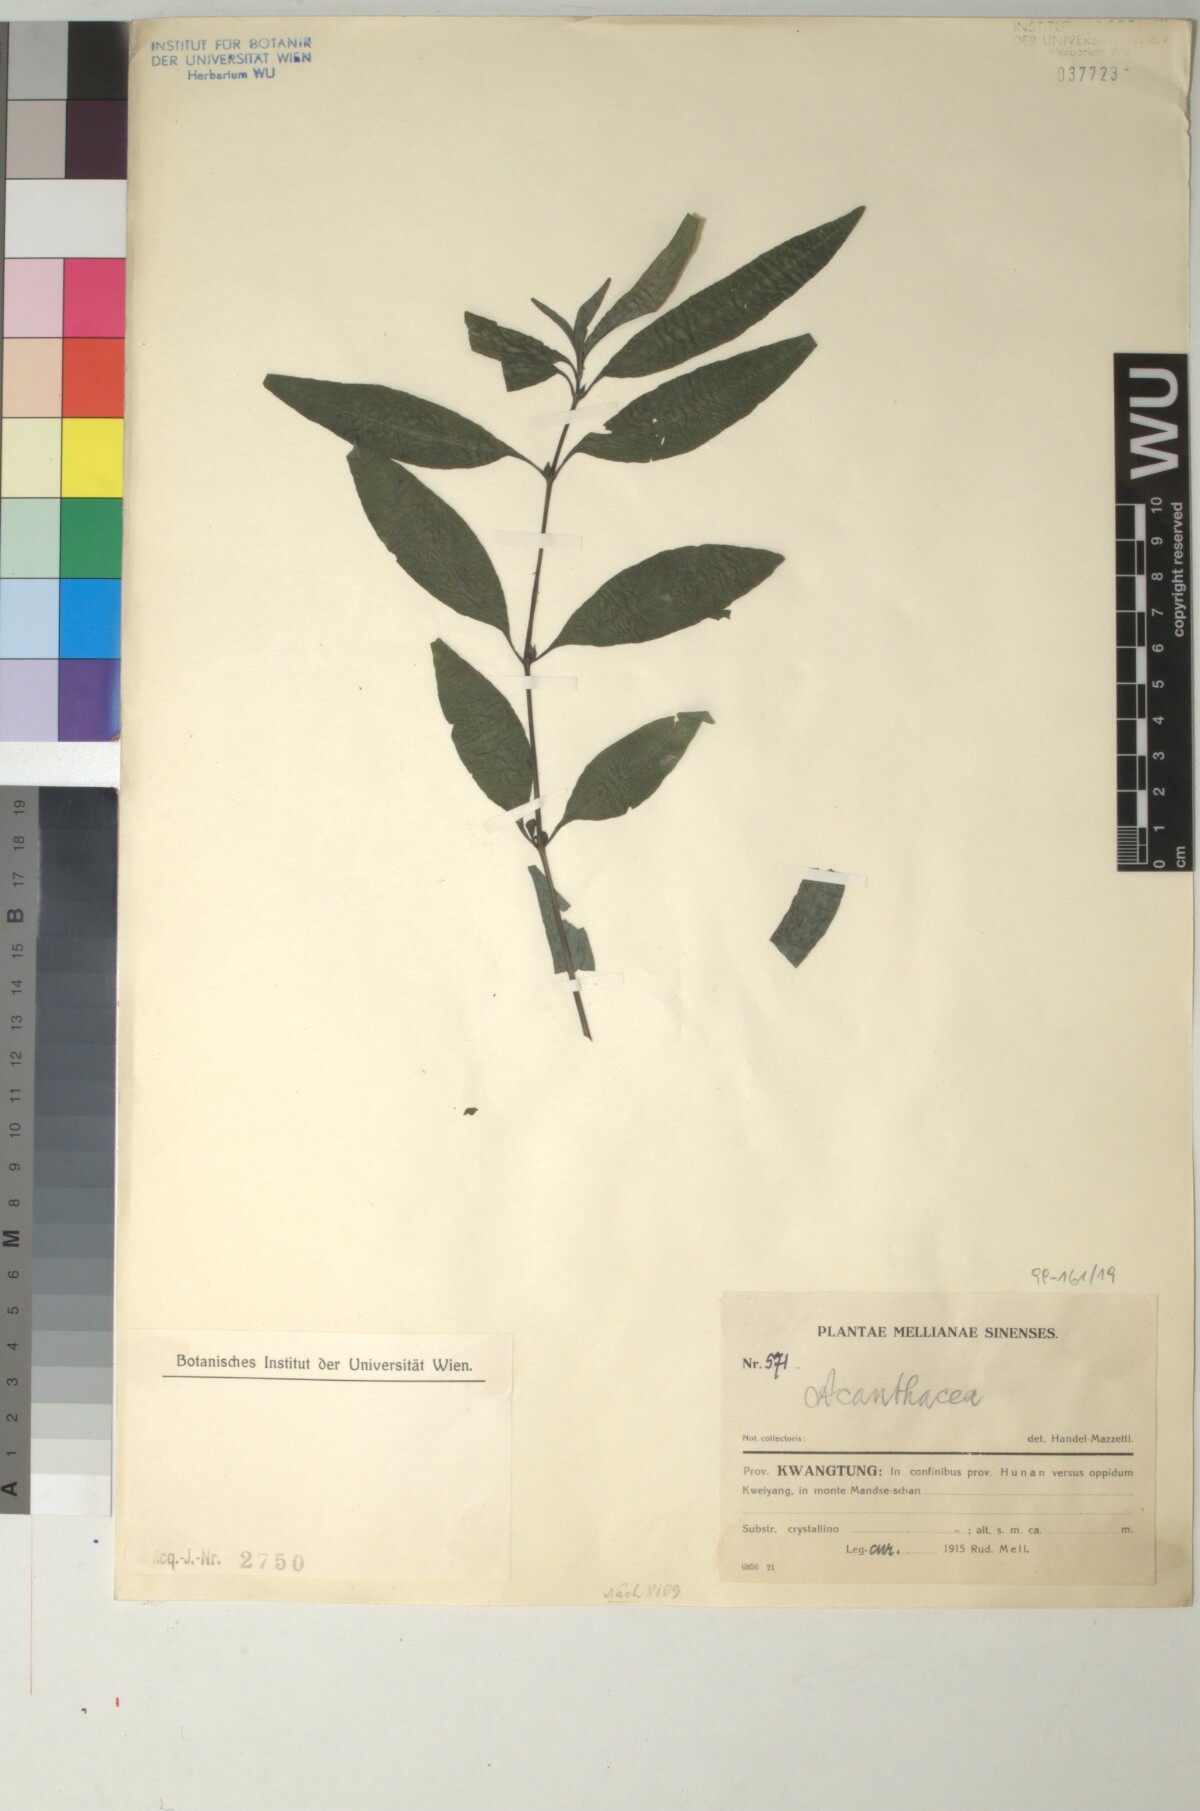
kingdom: Plantae
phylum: Tracheophyta
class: Magnoliopsida
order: Lamiales
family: Acanthaceae
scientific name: Acanthaceae
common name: Acanthaceae
